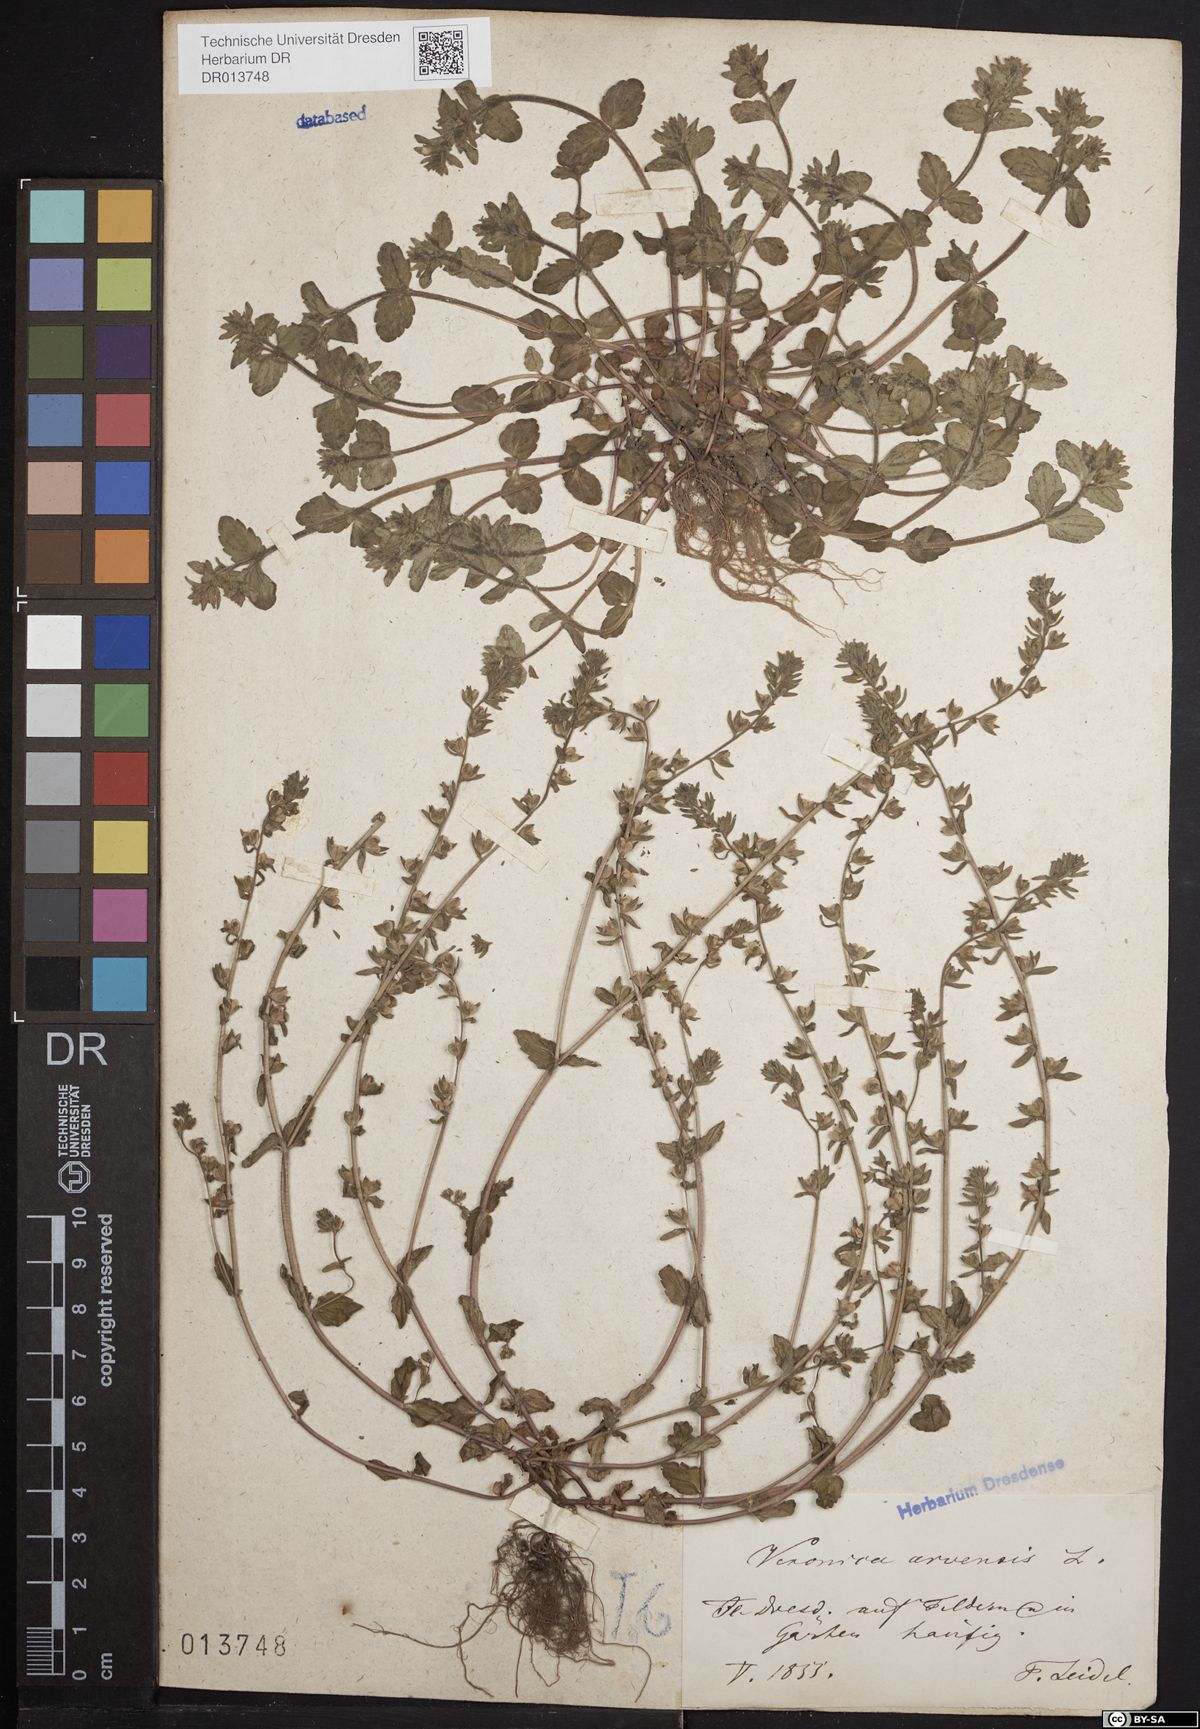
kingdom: Plantae
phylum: Tracheophyta
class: Magnoliopsida
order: Lamiales
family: Plantaginaceae
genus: Veronica
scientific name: Veronica arvensis
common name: Corn speedwell
